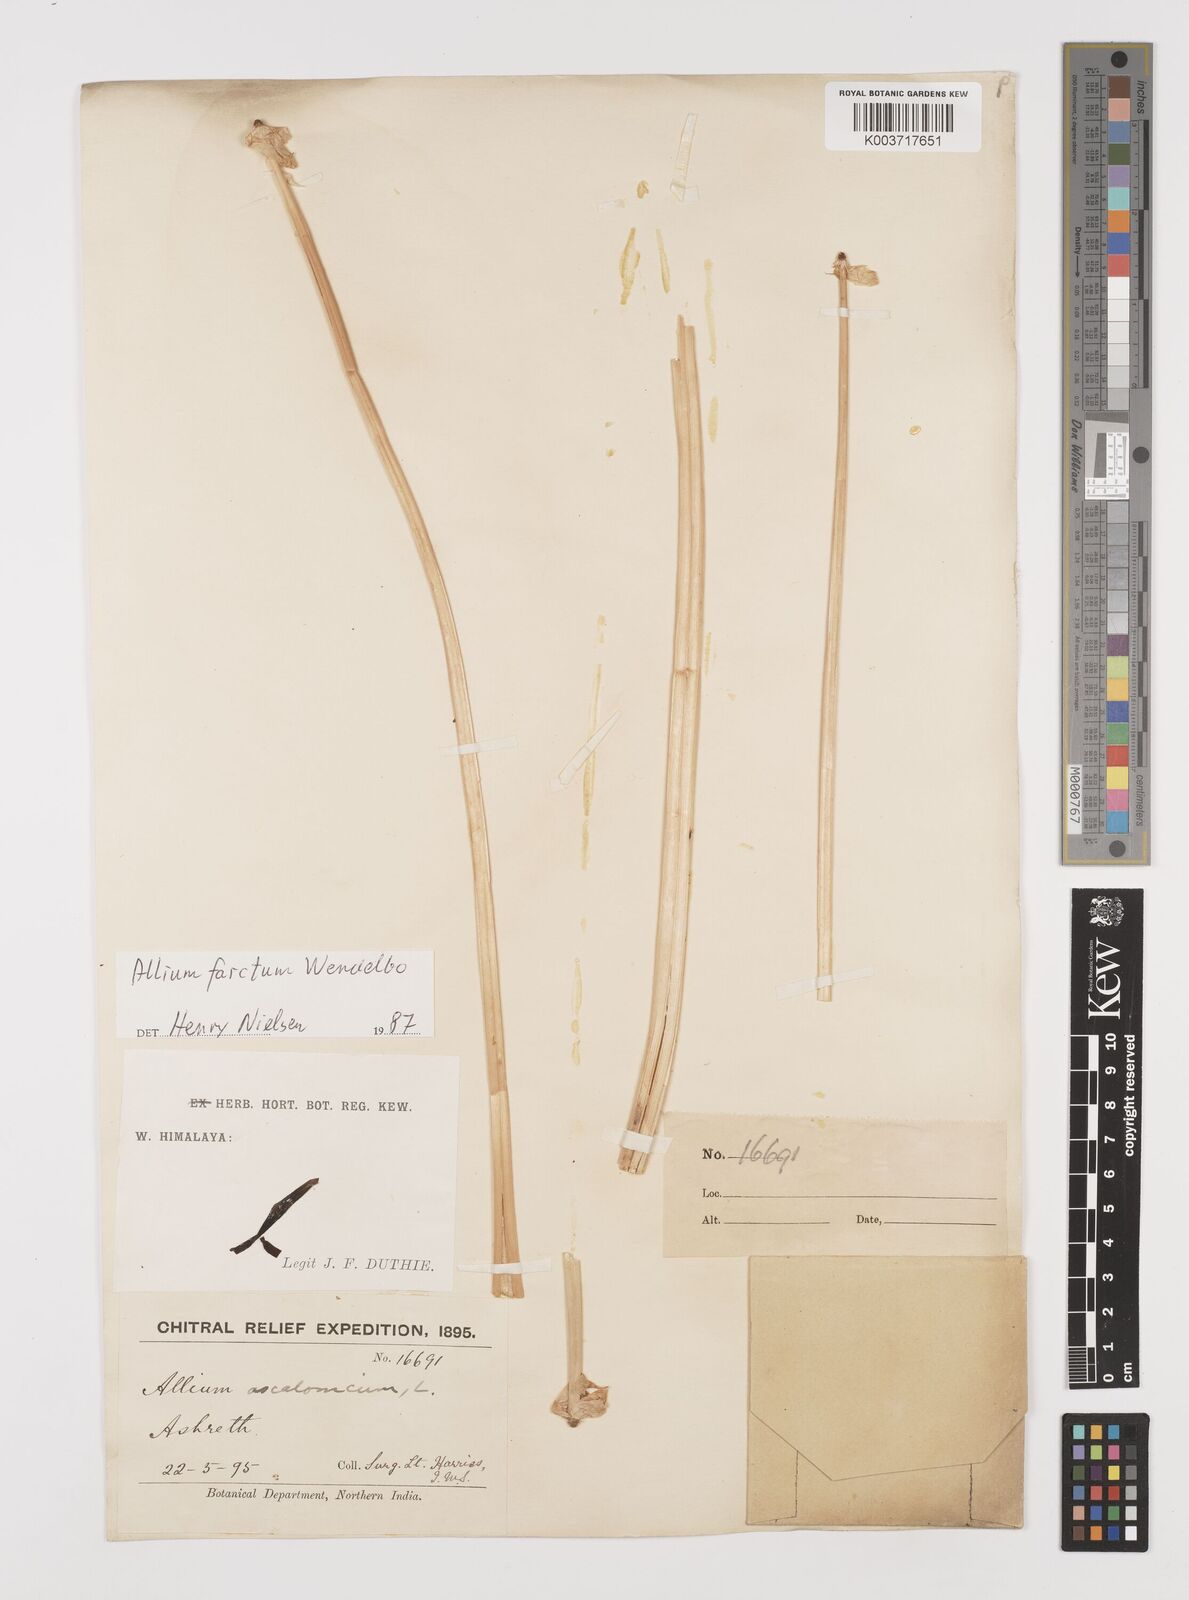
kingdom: Plantae
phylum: Tracheophyta
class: Liliopsida
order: Asparagales
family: Amaryllidaceae
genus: Allium
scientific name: Allium farctum
